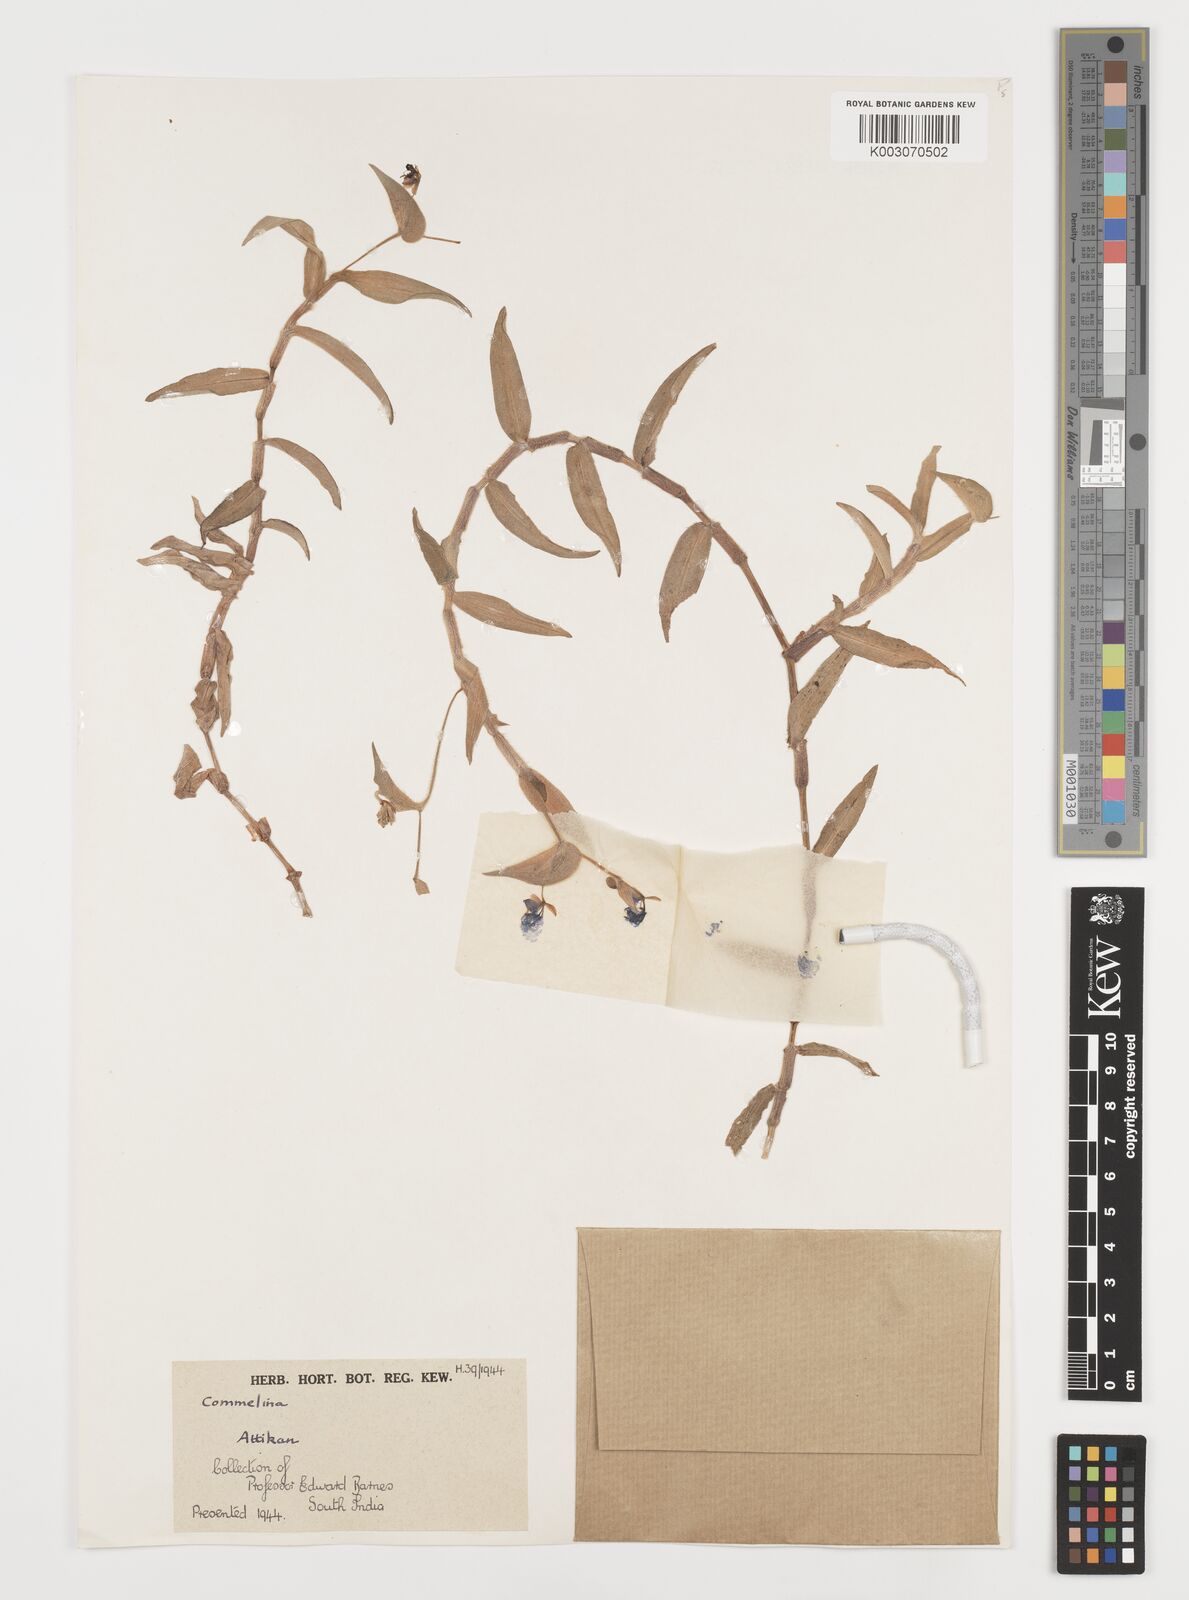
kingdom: Plantae
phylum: Tracheophyta
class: Liliopsida
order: Commelinales
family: Commelinaceae
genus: Commelina
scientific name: Commelina
